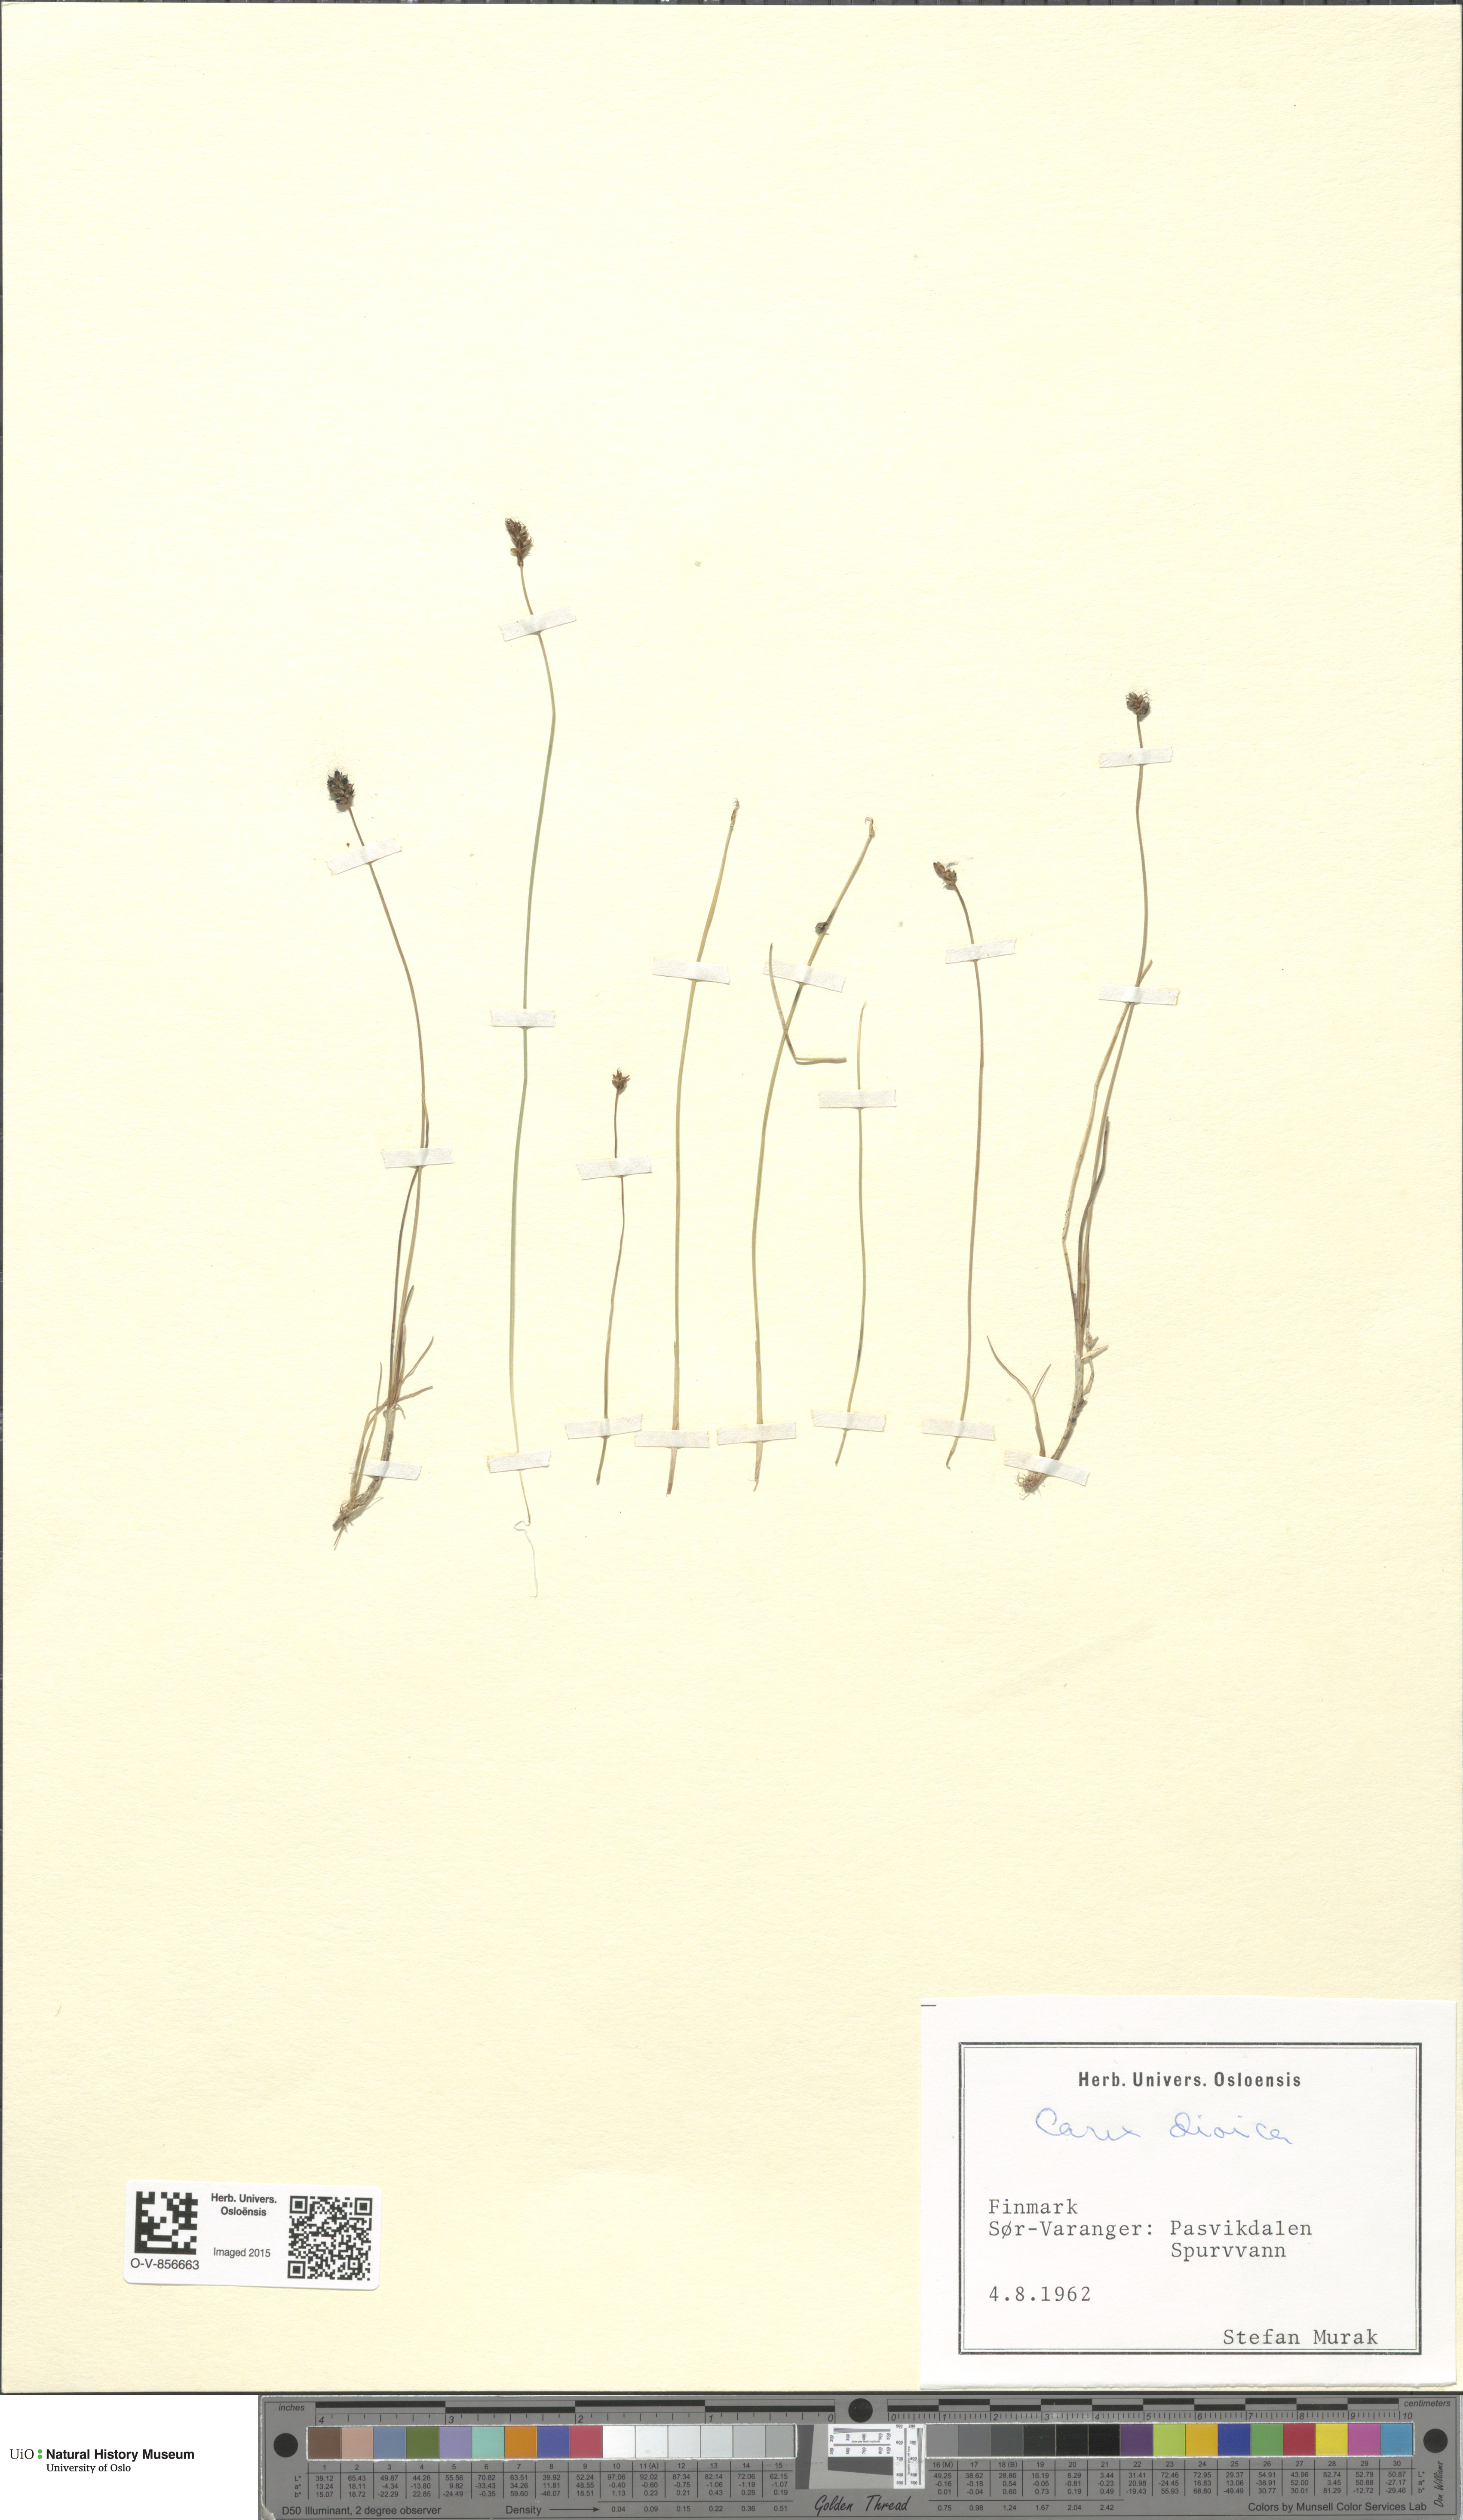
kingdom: Plantae
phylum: Tracheophyta
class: Liliopsida
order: Poales
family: Cyperaceae
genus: Carex
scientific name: Carex dioica
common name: Dioecious sedge
